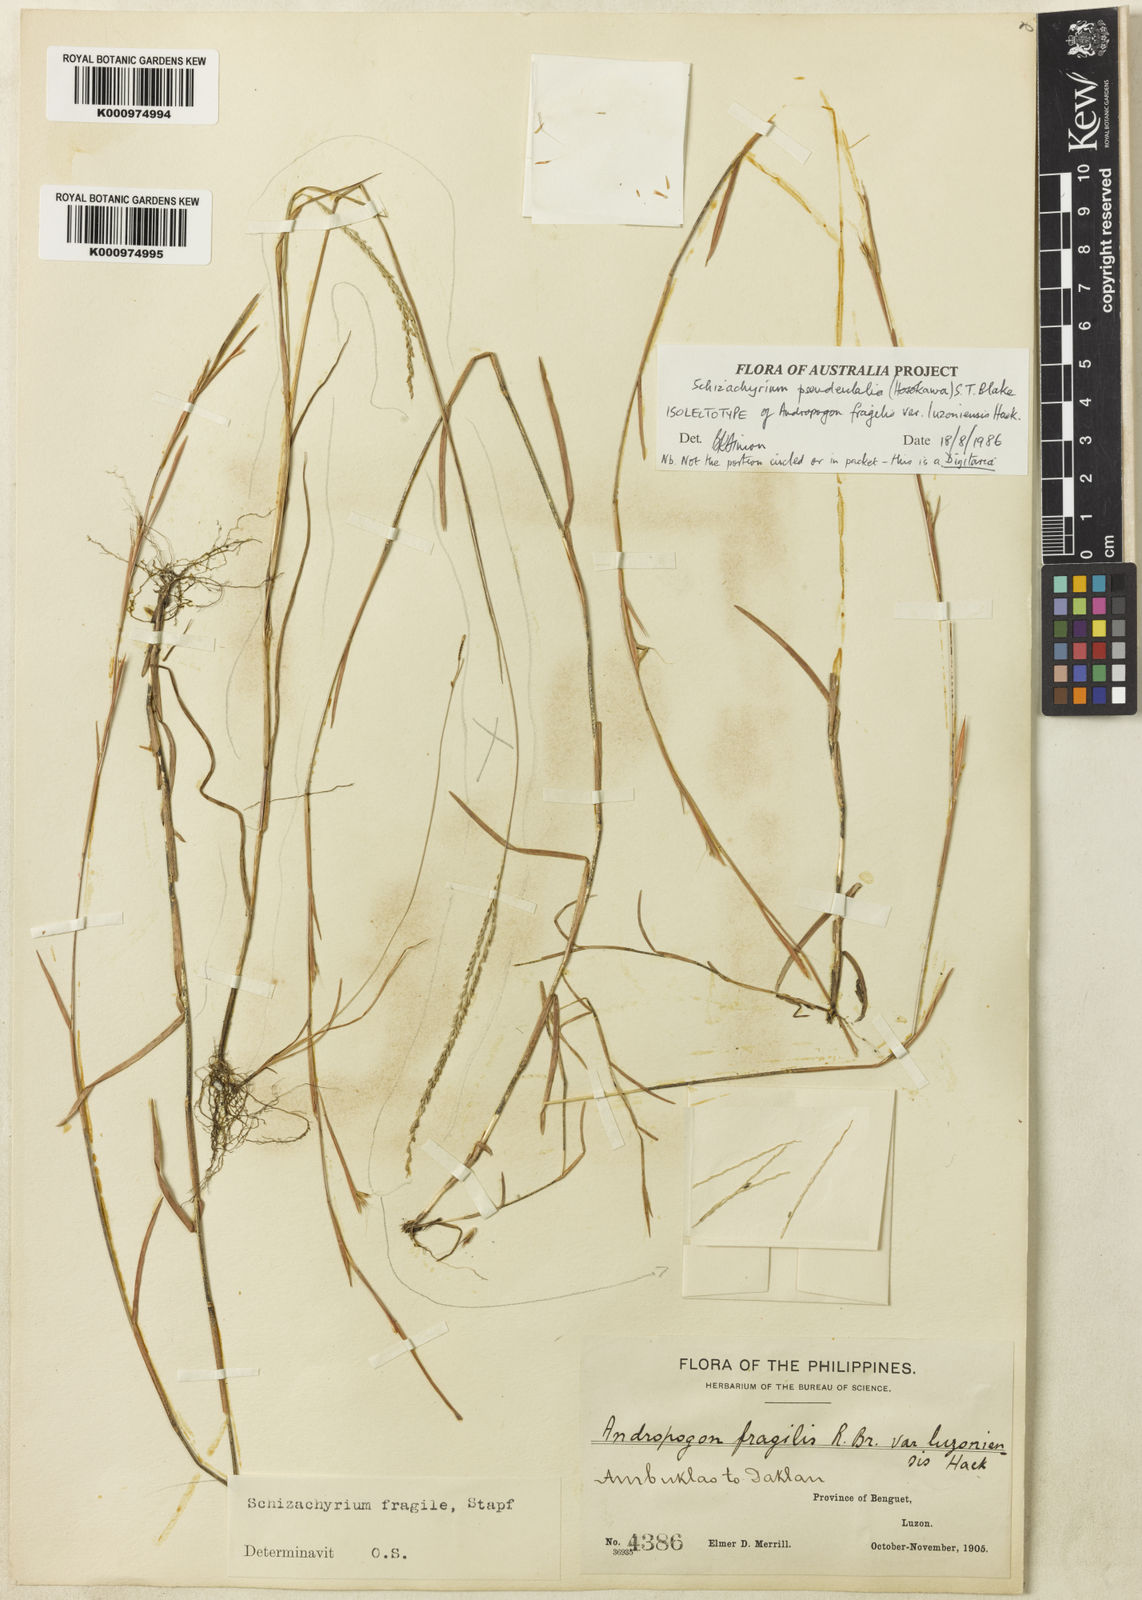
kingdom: Plantae
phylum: Tracheophyta
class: Liliopsida
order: Poales
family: Poaceae
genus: Schizachyrium
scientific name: Schizachyrium pseudeulalia
